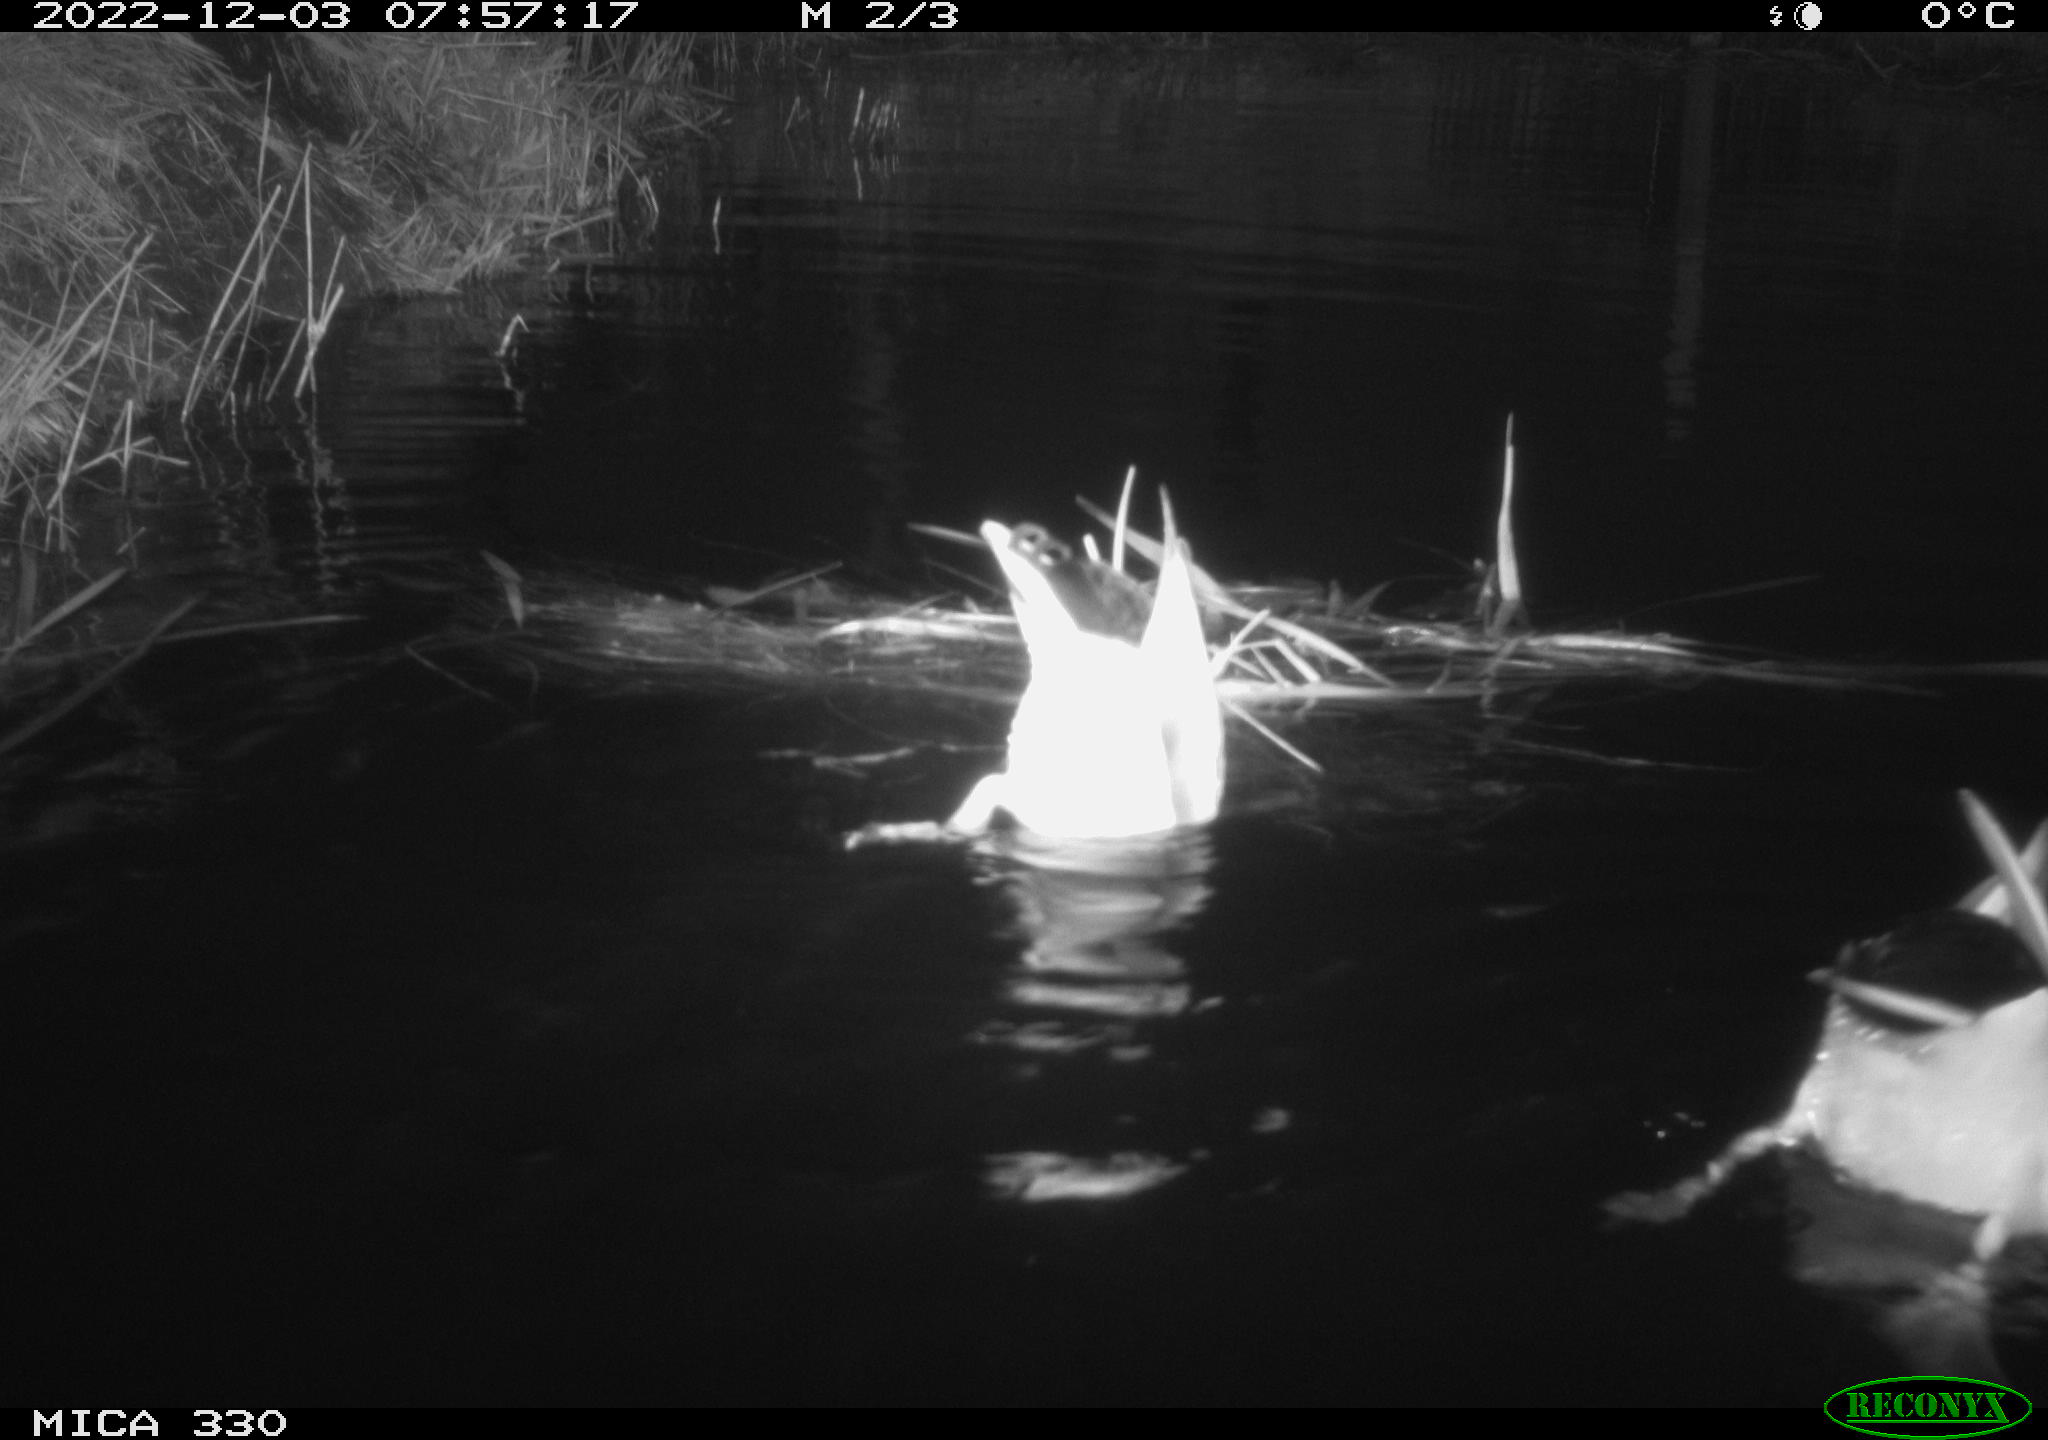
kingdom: Animalia
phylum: Chordata
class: Aves
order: Anseriformes
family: Anatidae
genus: Anas
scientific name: Anas
